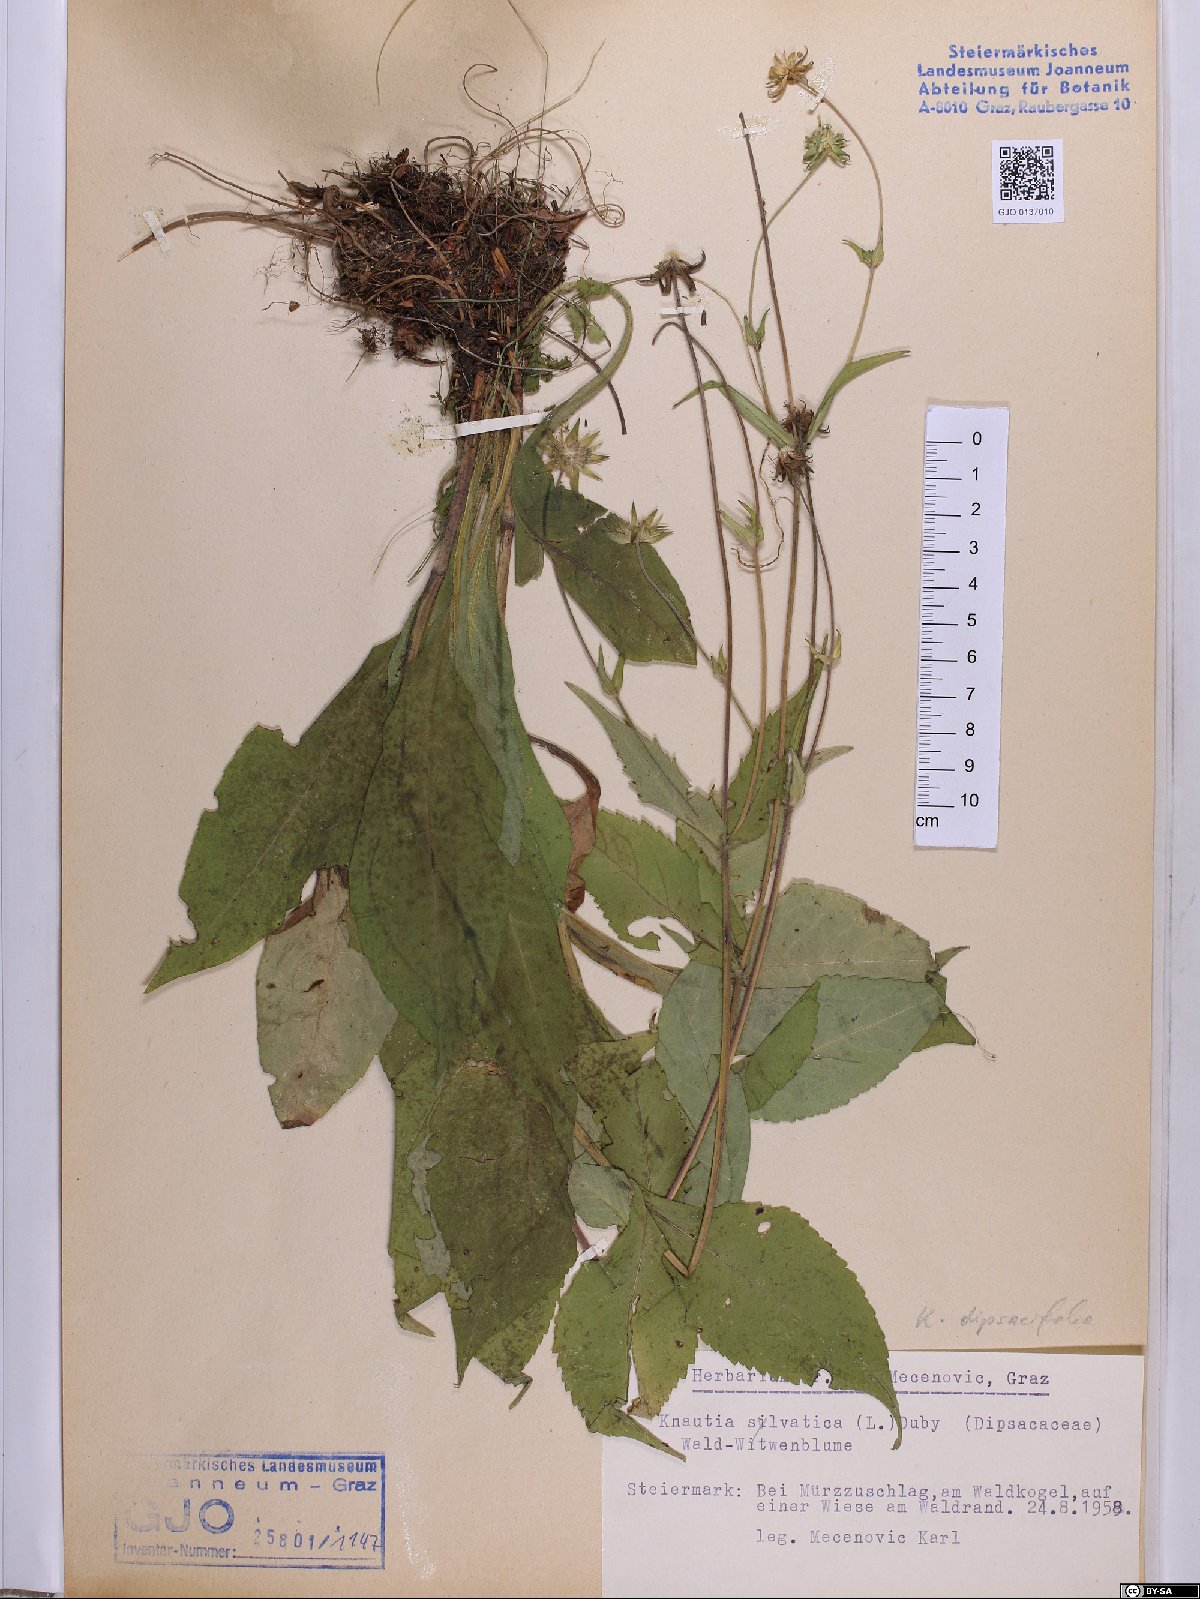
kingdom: Plantae
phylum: Tracheophyta
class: Magnoliopsida
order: Dipsacales
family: Caprifoliaceae
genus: Knautia
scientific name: Knautia drymeia
